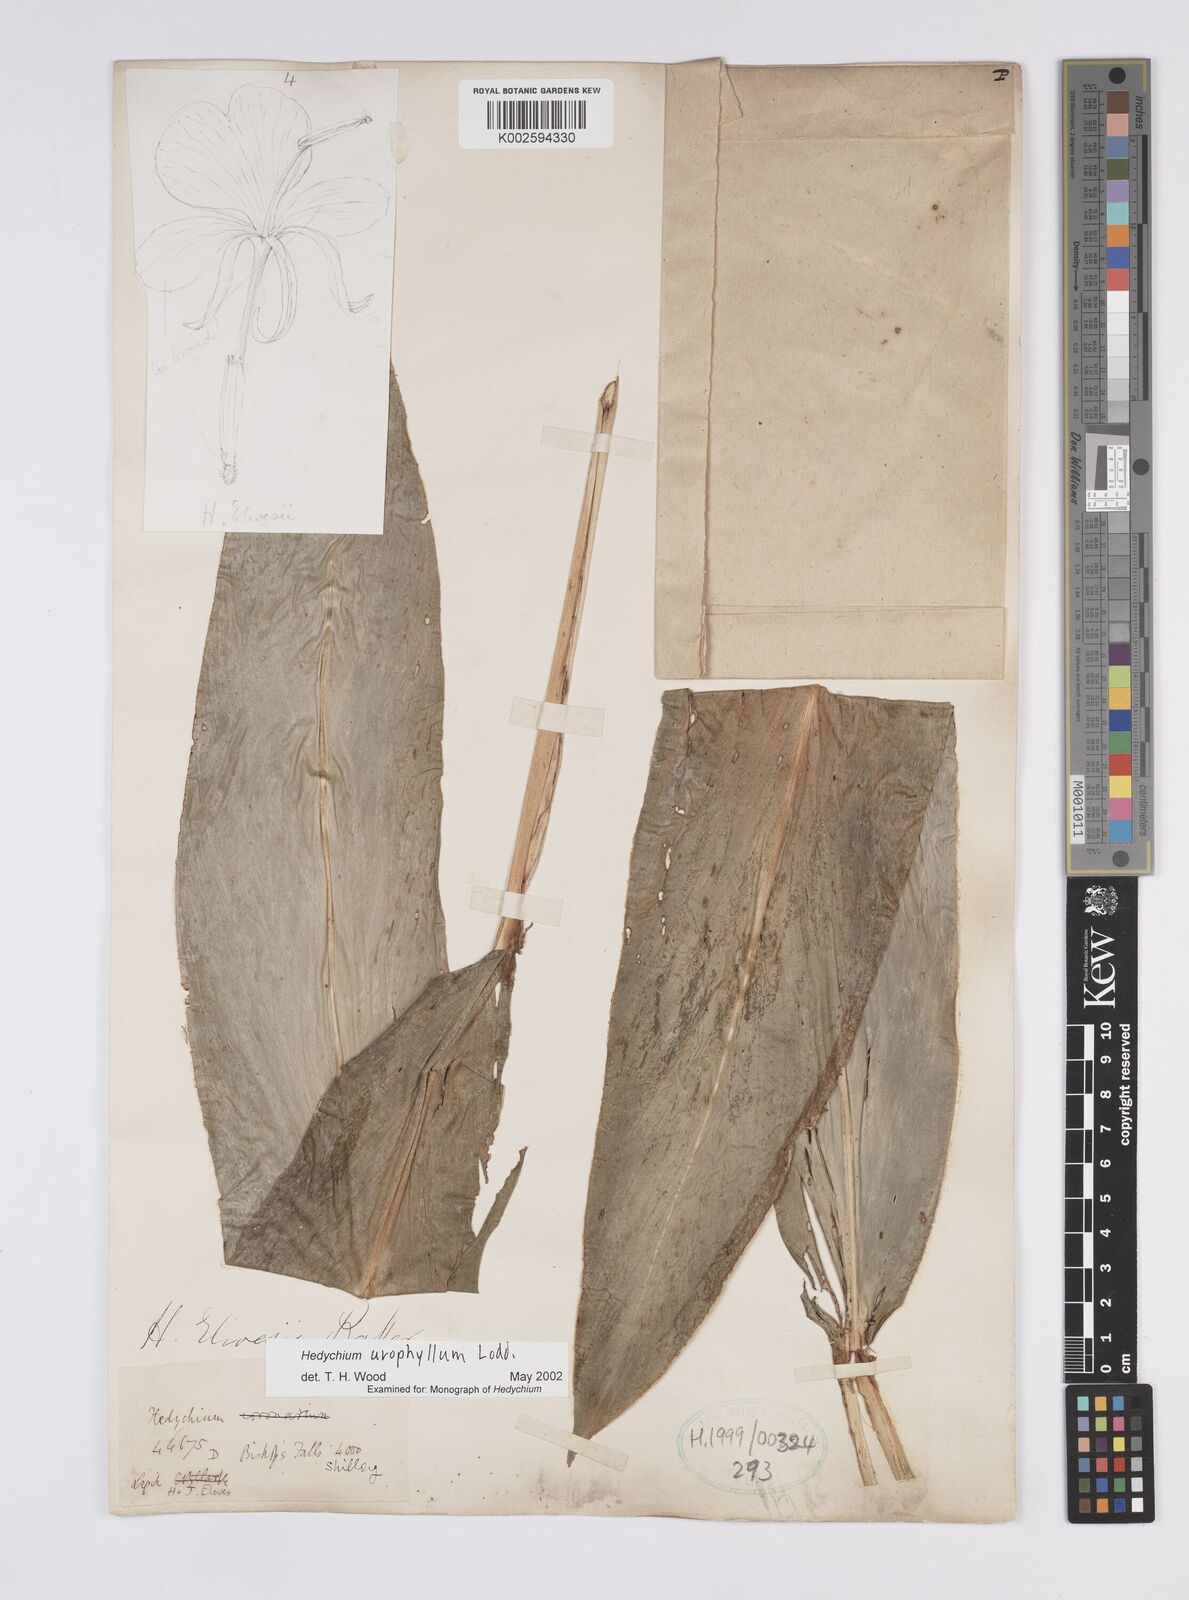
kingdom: Plantae
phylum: Tracheophyta
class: Liliopsida
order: Zingiberales
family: Zingiberaceae
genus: Hedychium
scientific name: Hedychium flavum
